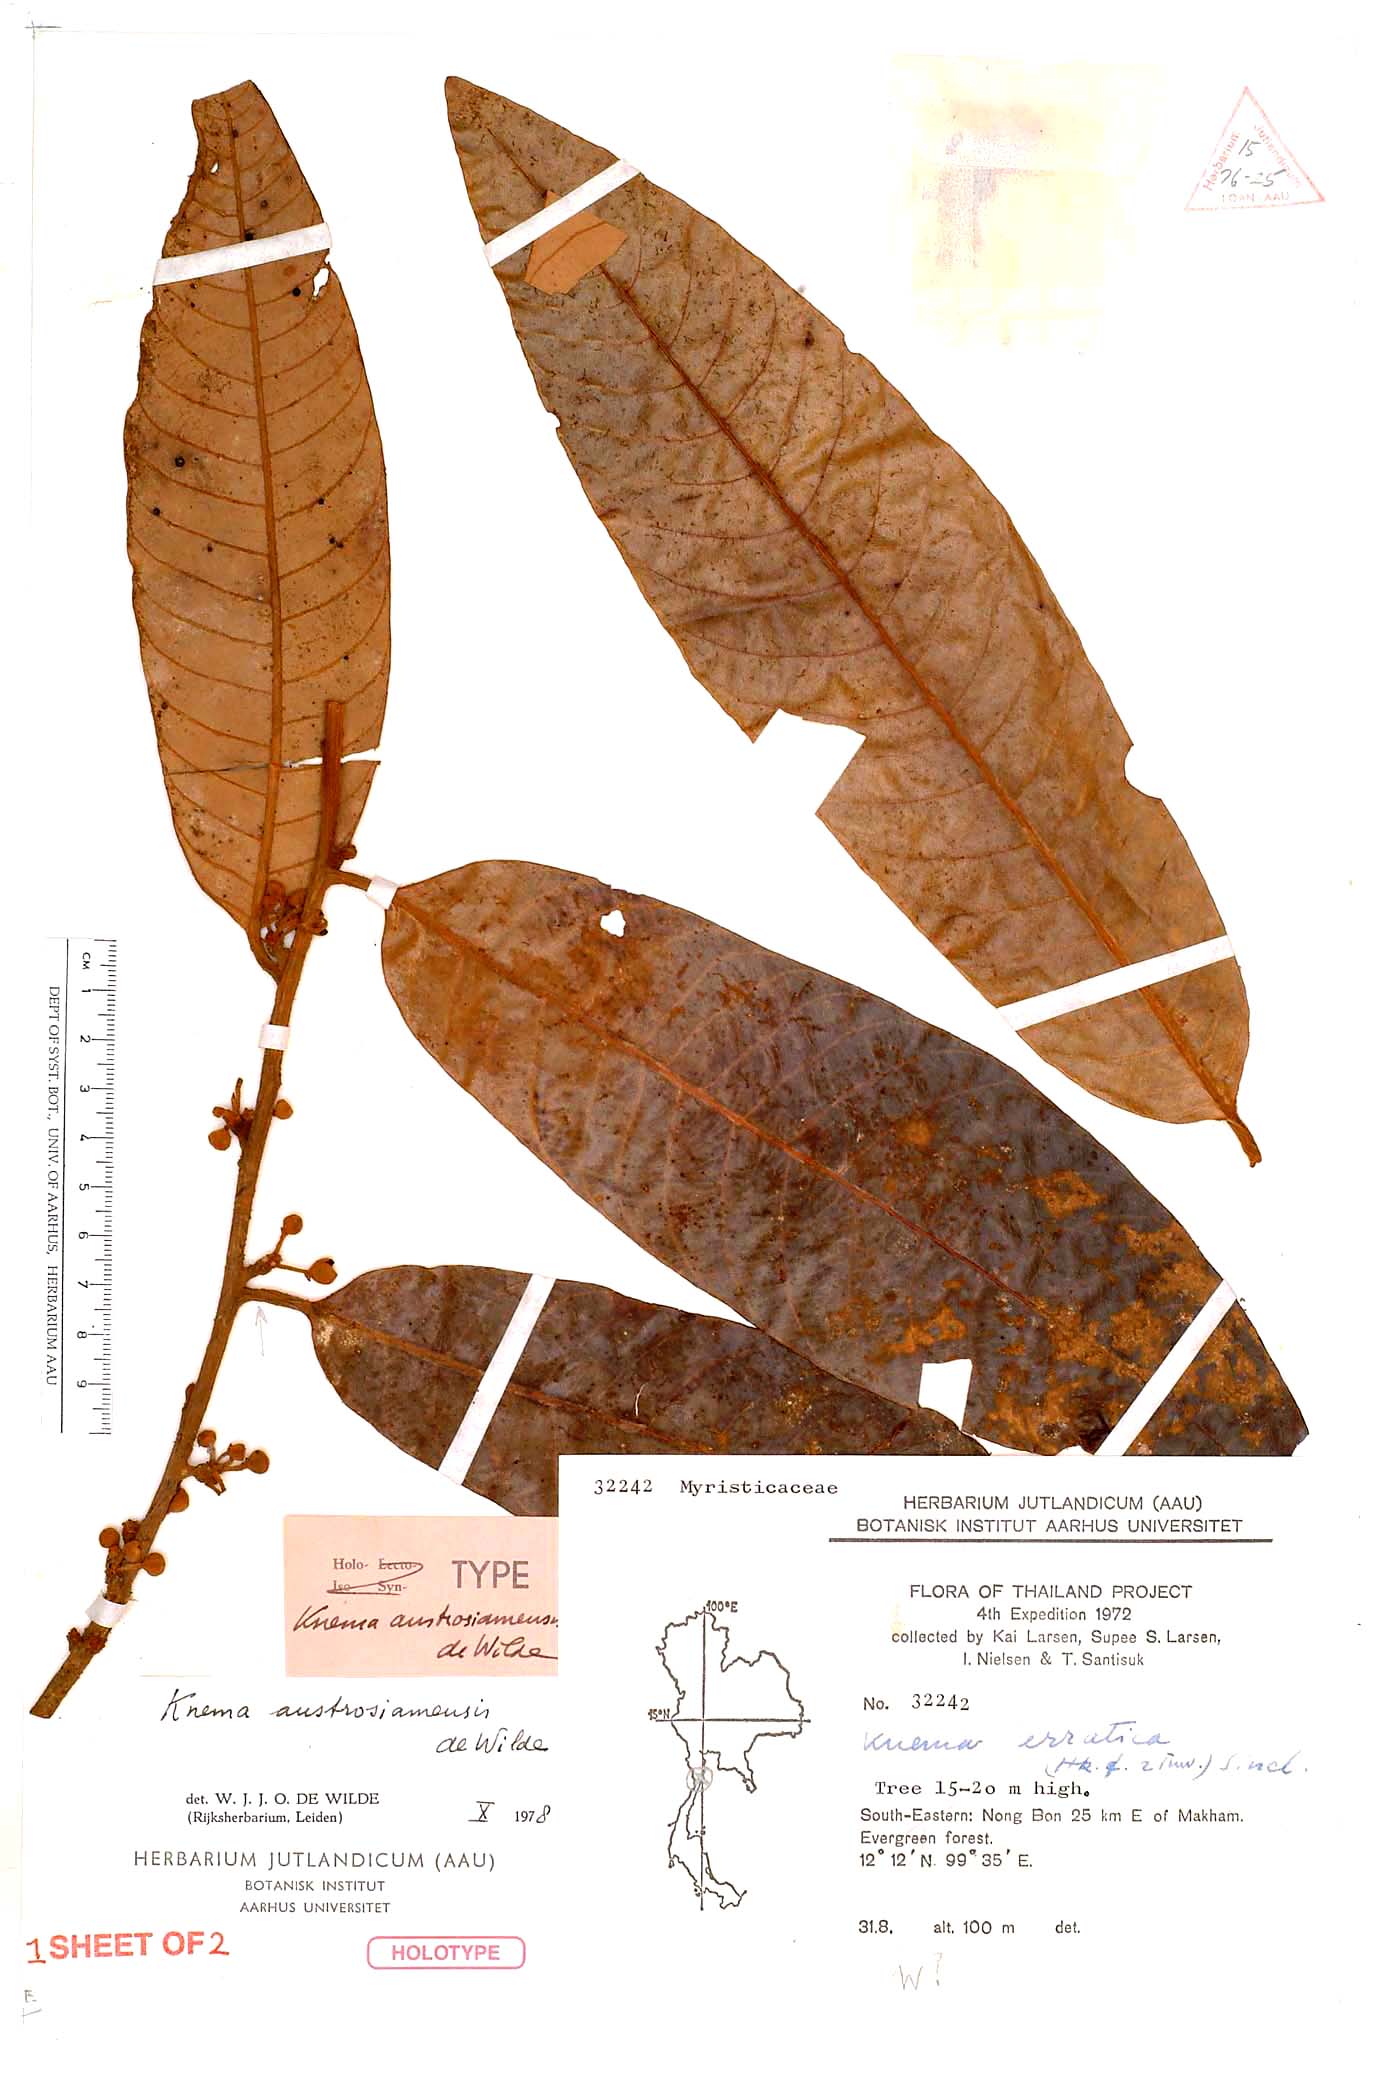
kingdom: Plantae
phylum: Tracheophyta
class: Magnoliopsida
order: Magnoliales
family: Myristicaceae
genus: Knema
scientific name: Knema austrosiamensis
